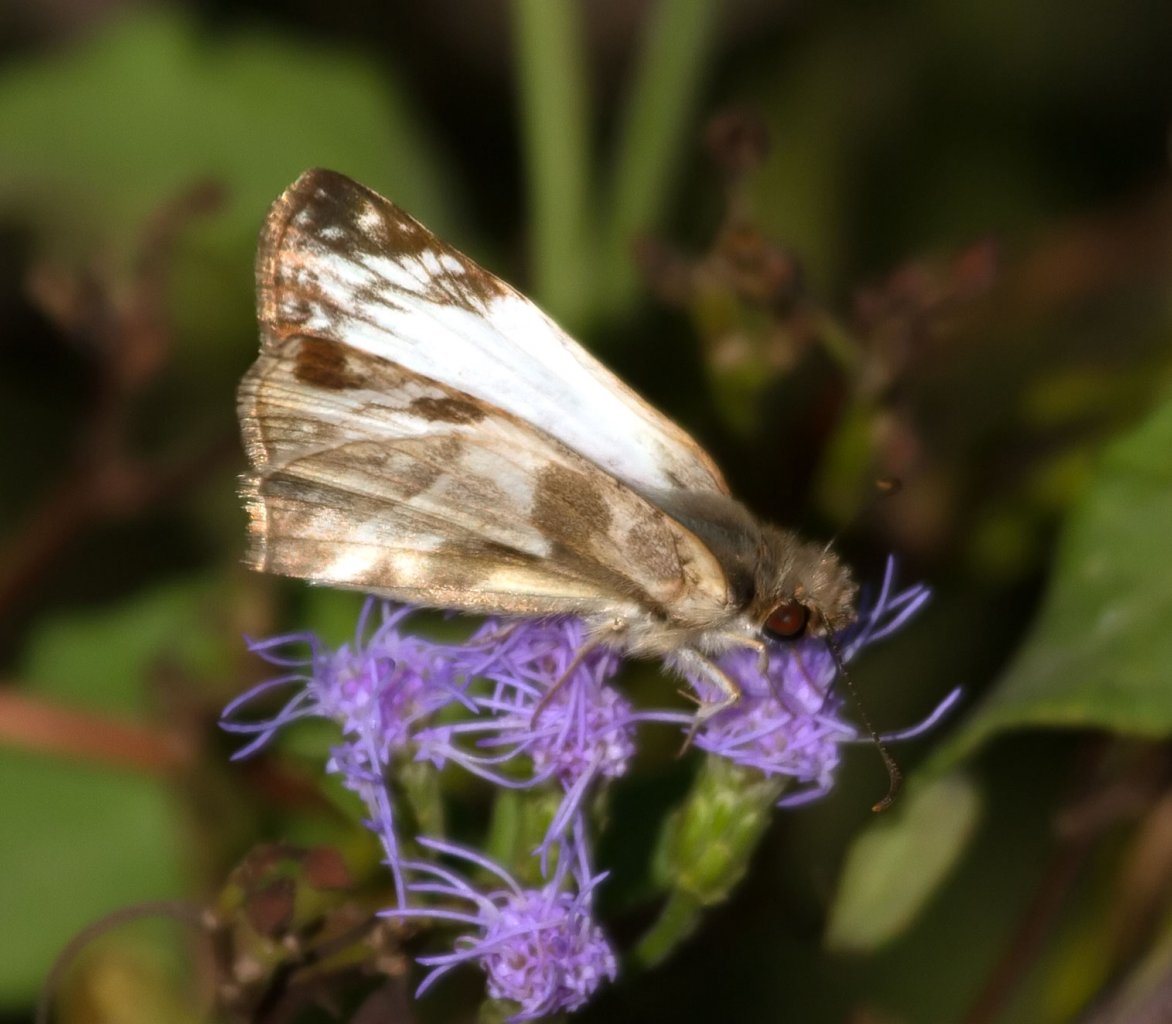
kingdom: Animalia
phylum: Arthropoda
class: Insecta
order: Lepidoptera
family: Hesperiidae
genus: Heliopetes
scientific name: Heliopetes laviana
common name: Laviana White-Skipper
